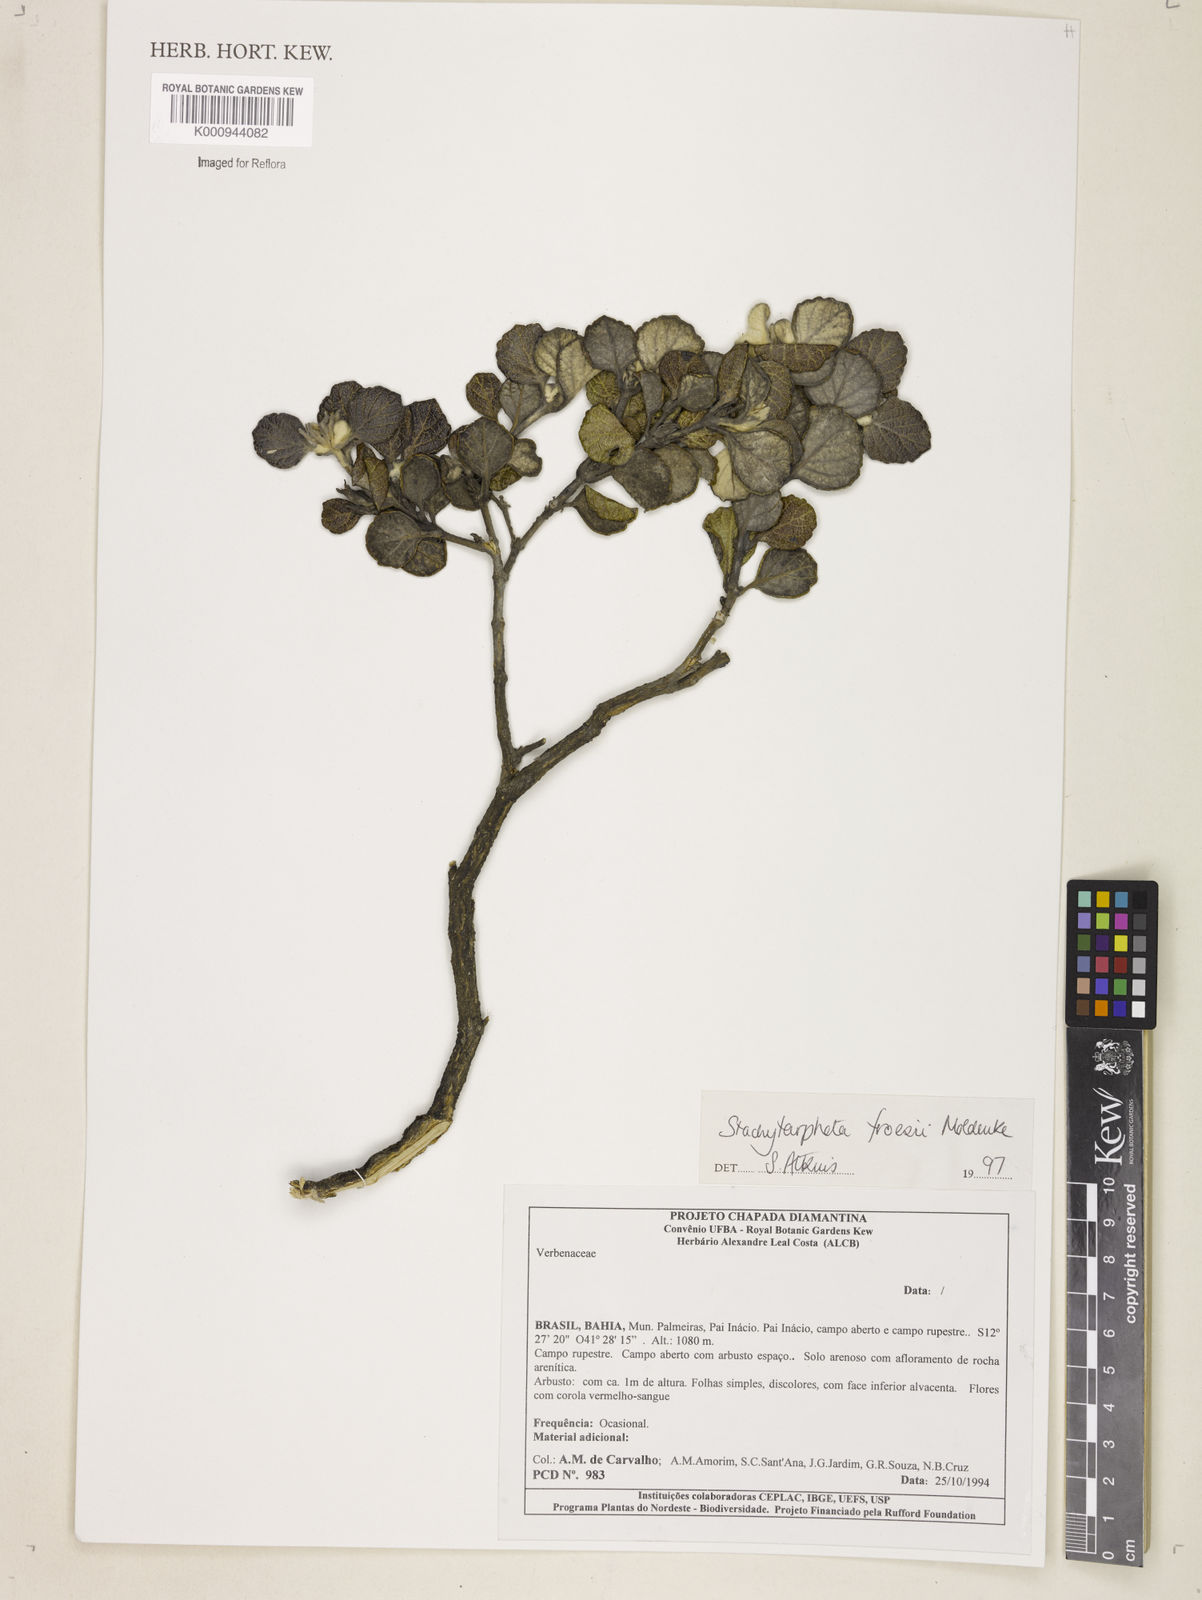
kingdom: Plantae
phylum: Tracheophyta
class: Magnoliopsida
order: Lamiales
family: Verbenaceae
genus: Stachytarpheta
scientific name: Stachytarpheta froesii
